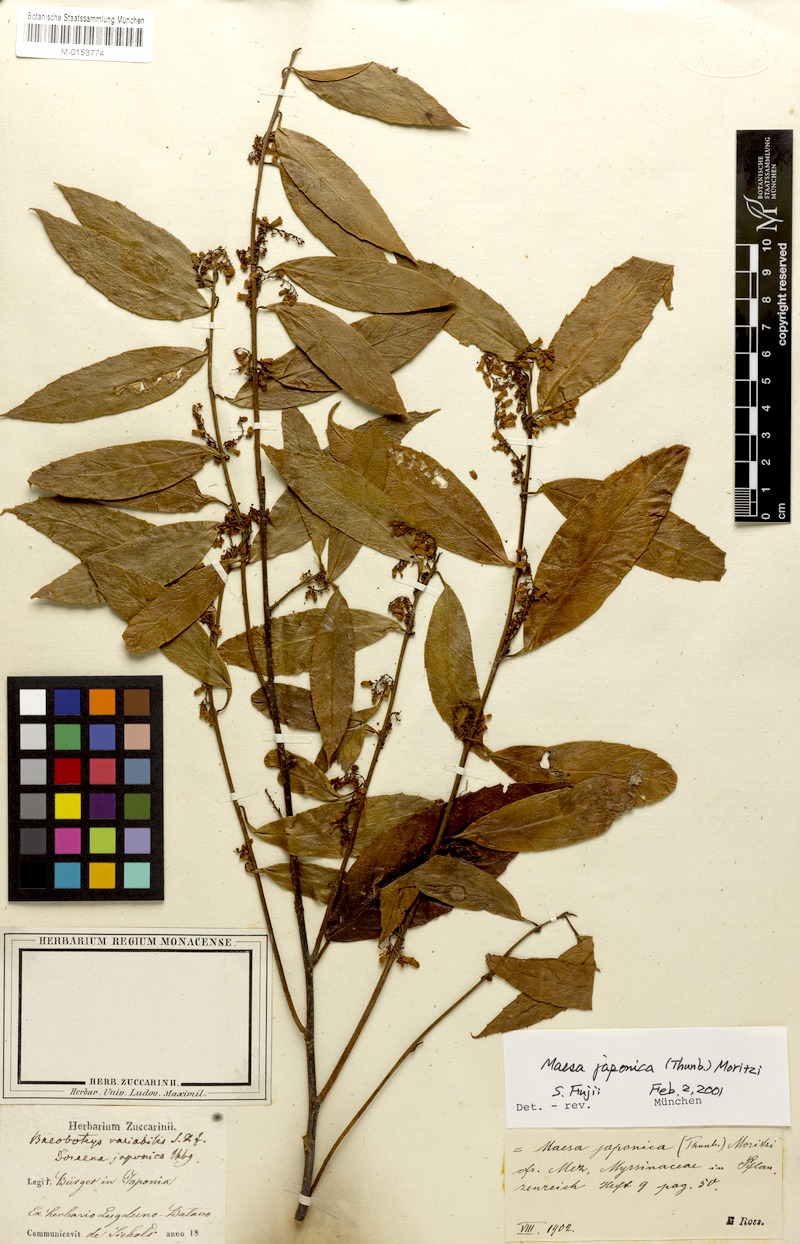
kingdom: Plantae
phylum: Tracheophyta
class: Magnoliopsida
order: Ericales
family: Primulaceae
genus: Maesa
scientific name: Maesa japonica
